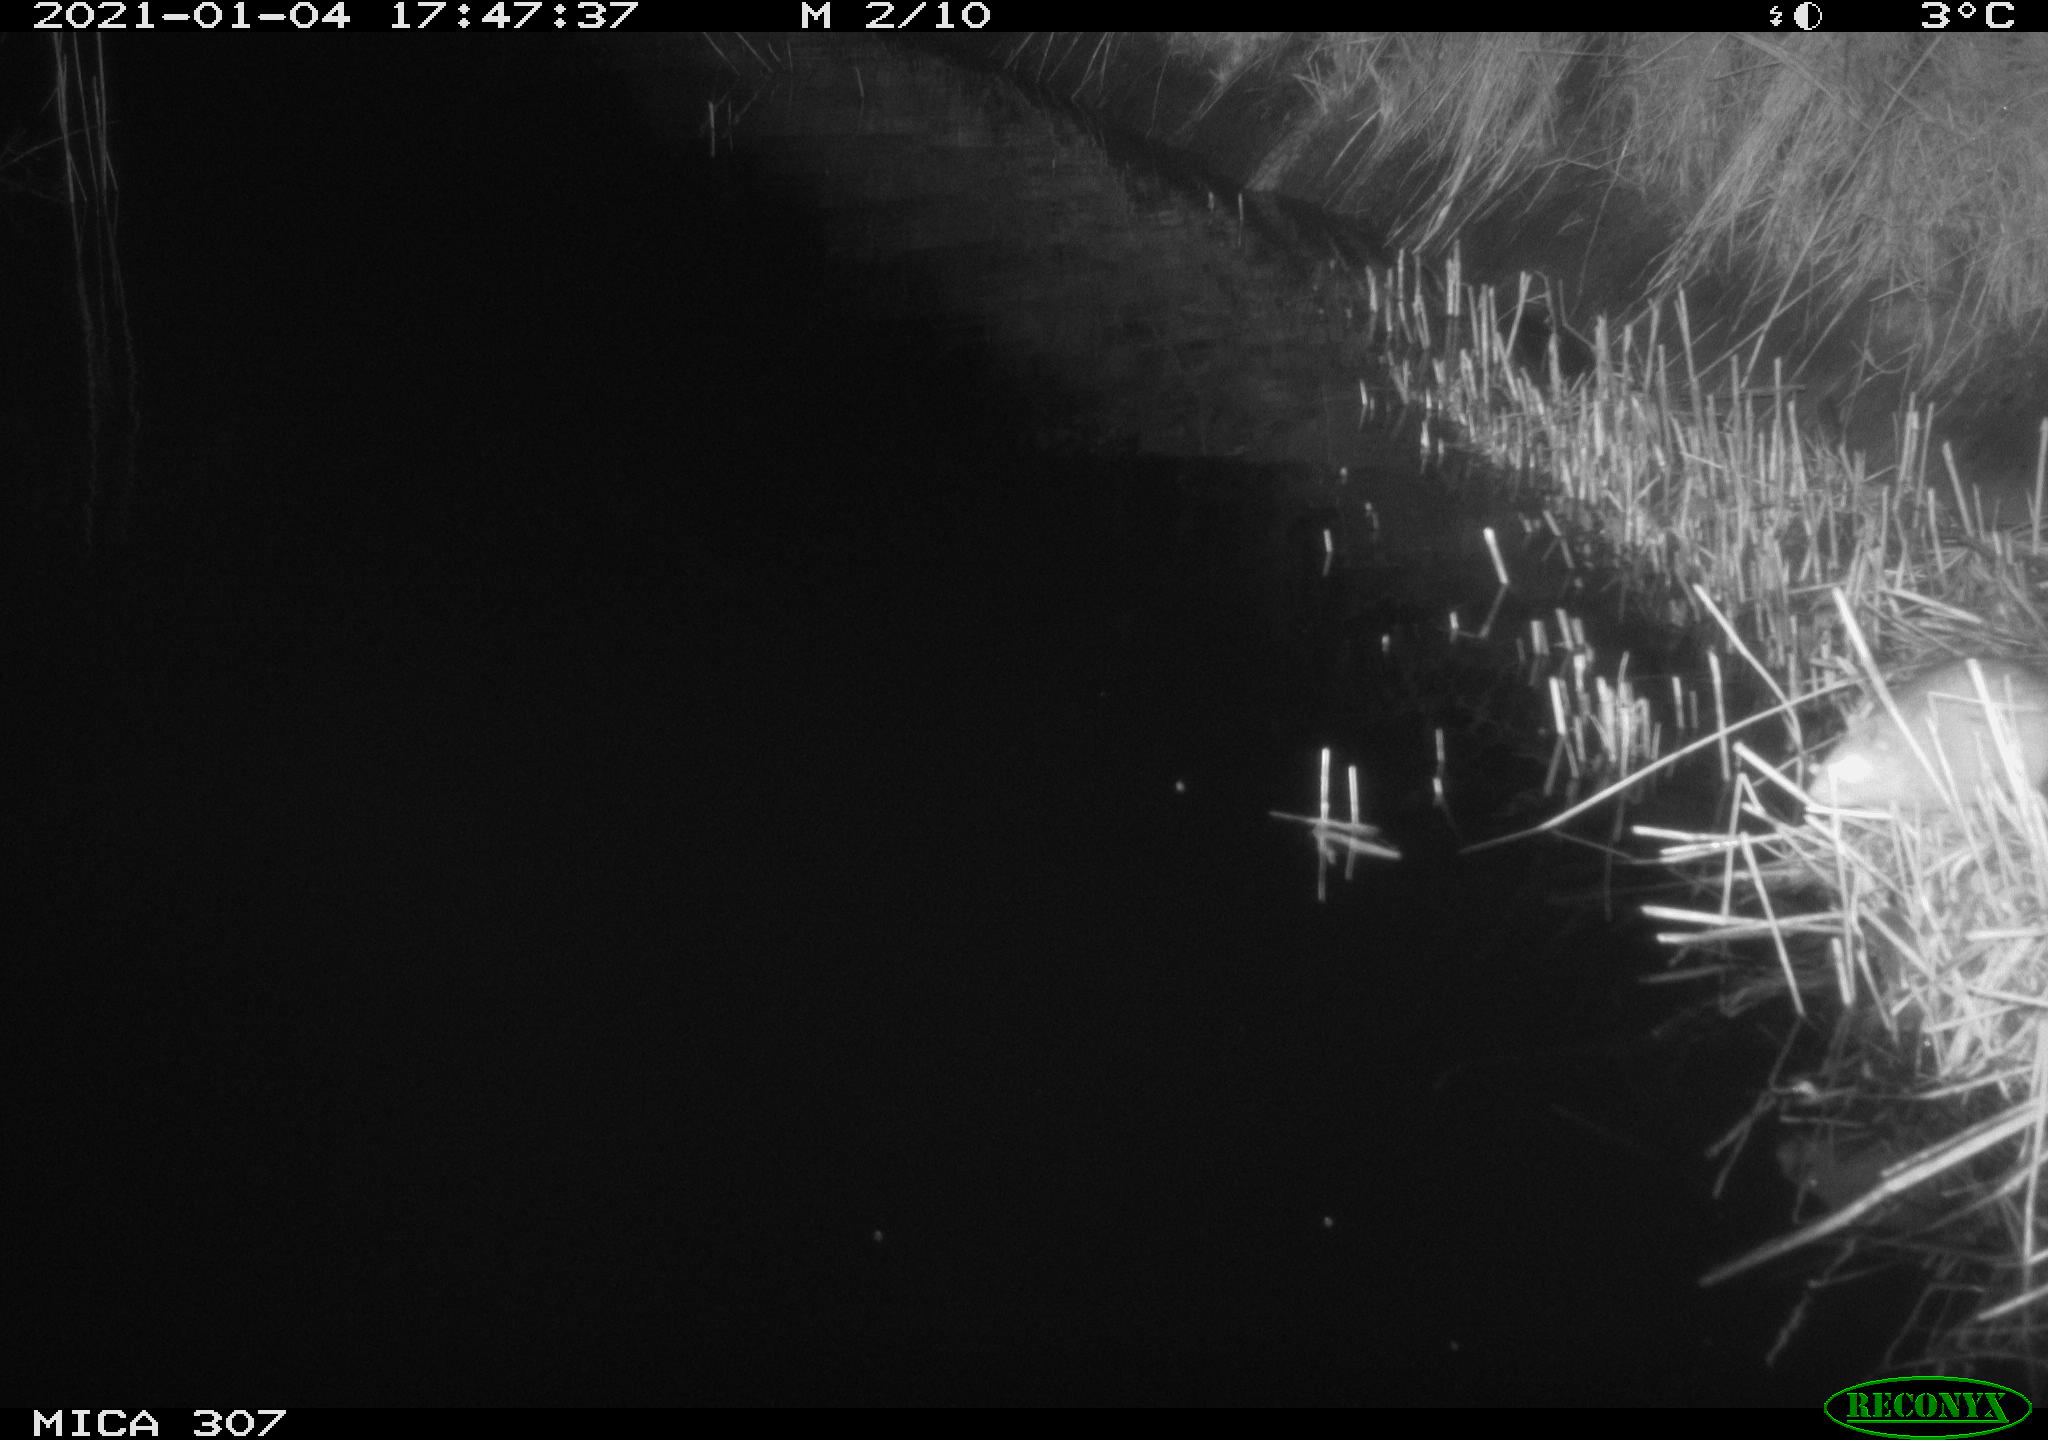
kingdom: Animalia
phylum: Chordata
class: Mammalia
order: Rodentia
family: Muridae
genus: Rattus
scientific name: Rattus norvegicus
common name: Brown rat
